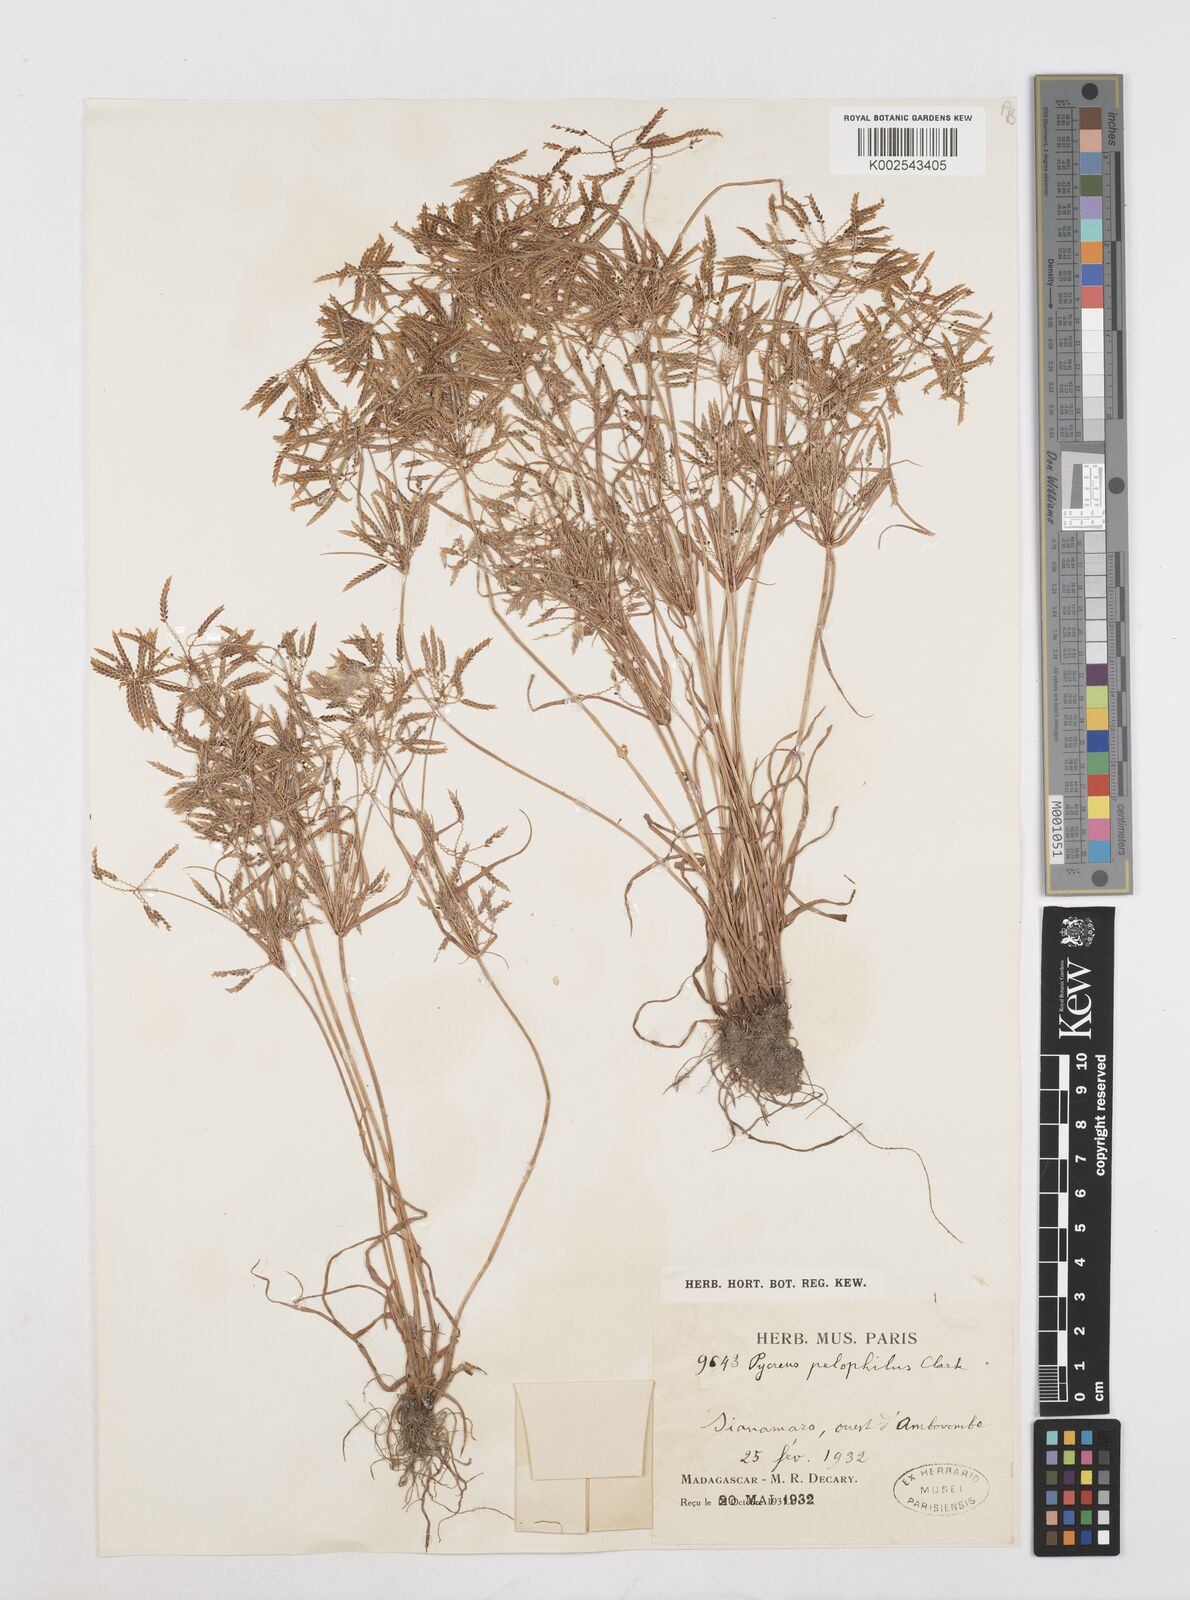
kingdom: Plantae
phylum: Tracheophyta
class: Liliopsida
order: Poales
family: Cyperaceae
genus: Cyperus
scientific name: Cyperus pelophilus
